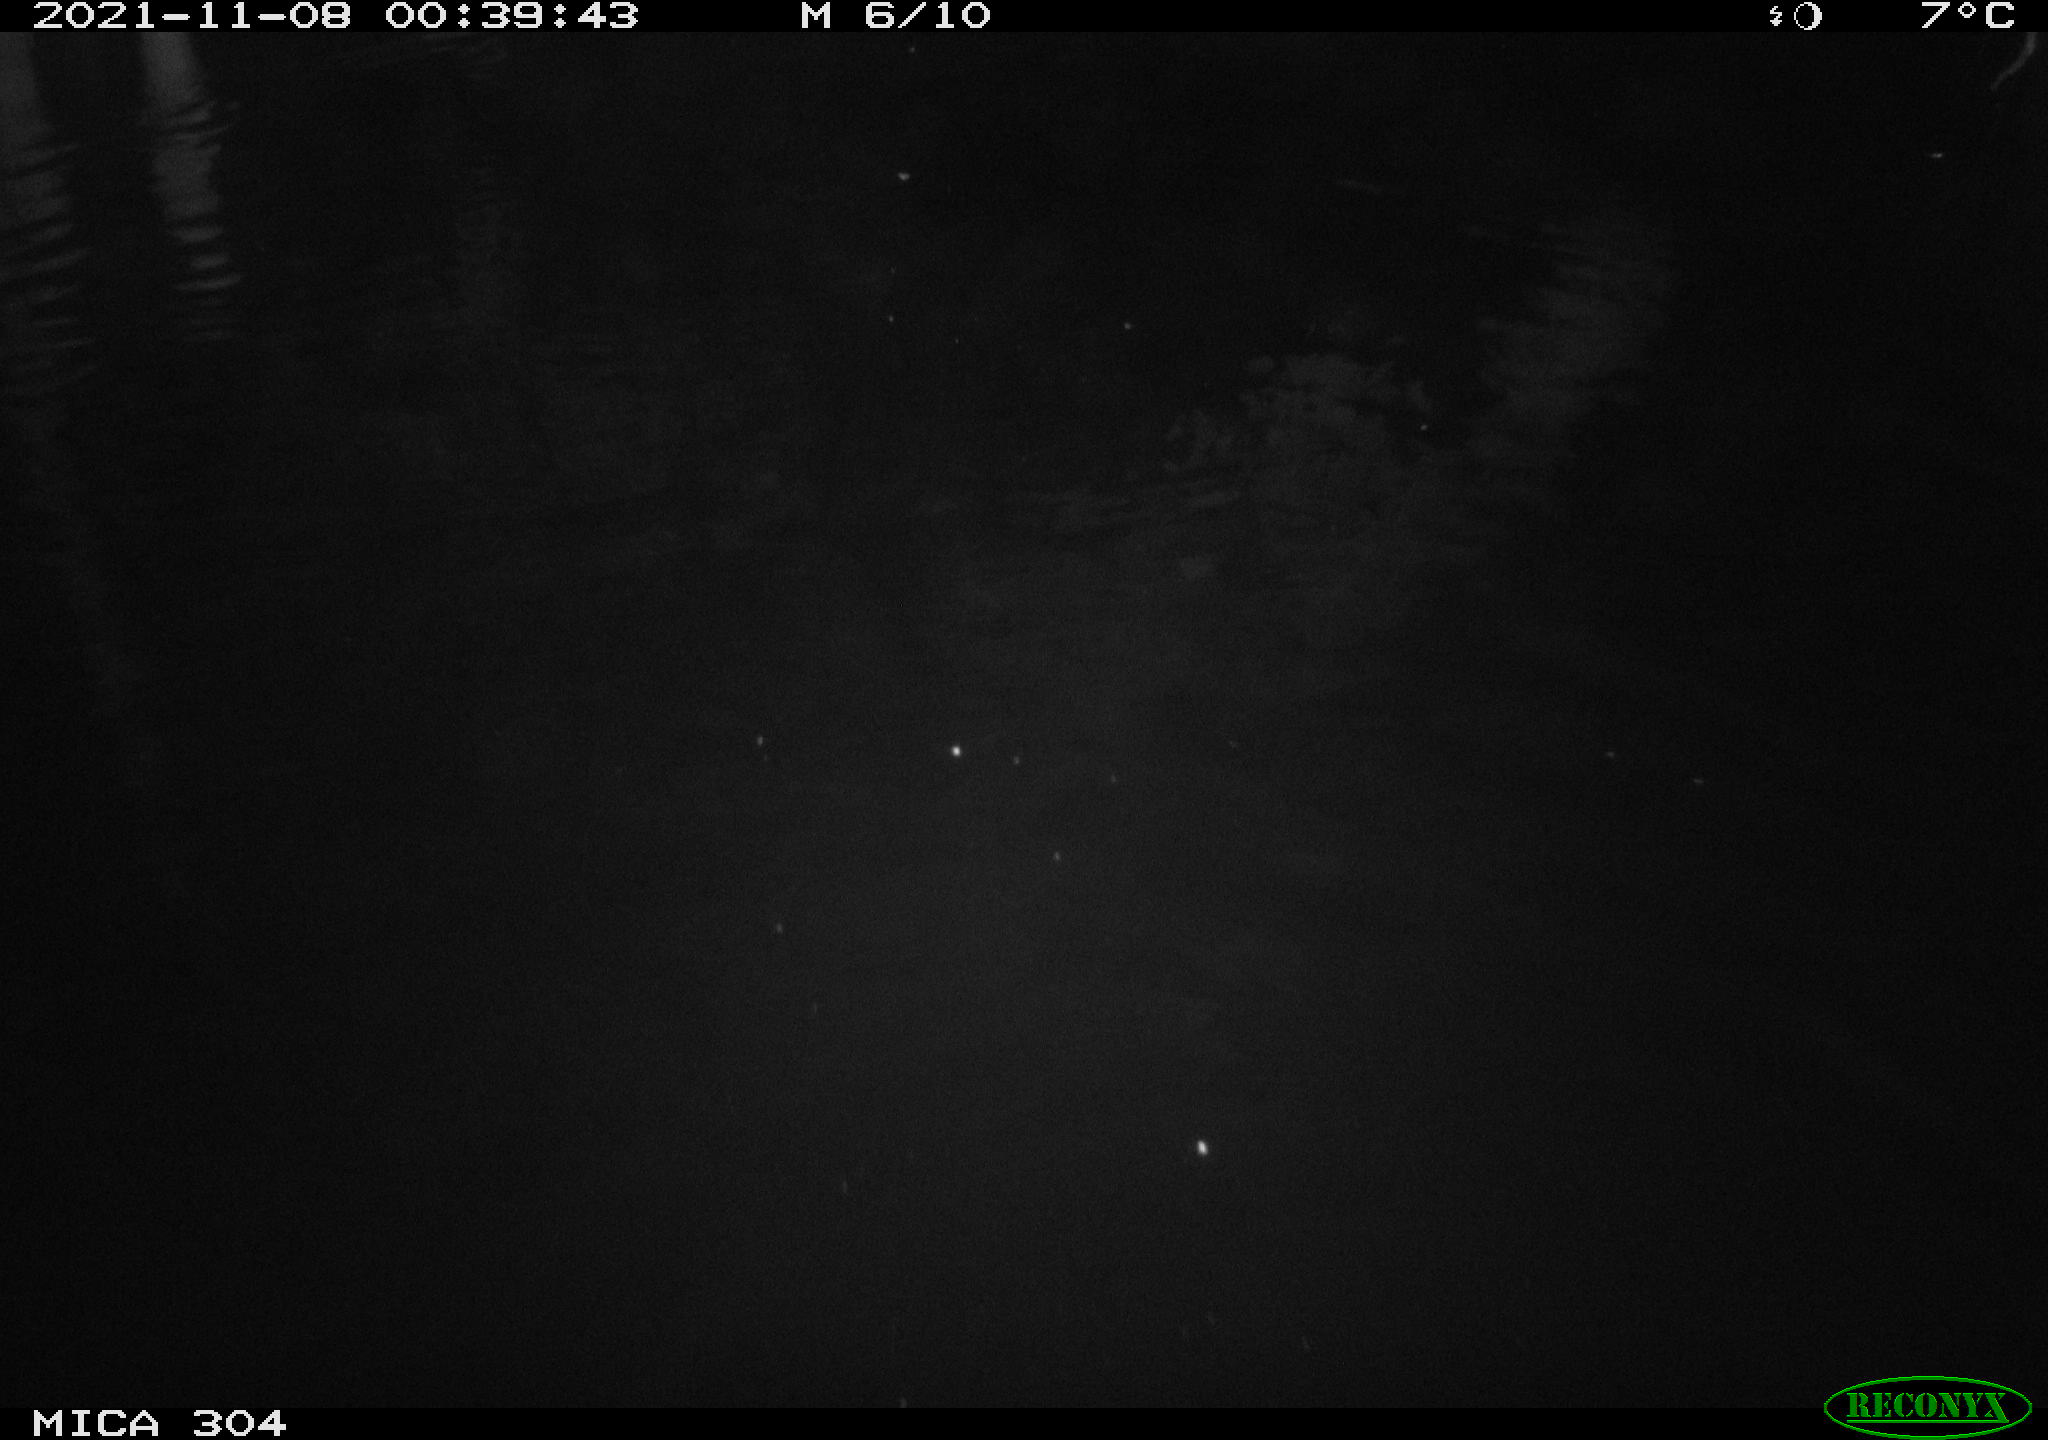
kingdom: Animalia
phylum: Chordata
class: Mammalia
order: Rodentia
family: Muridae
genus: Rattus
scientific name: Rattus norvegicus
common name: Brown rat
